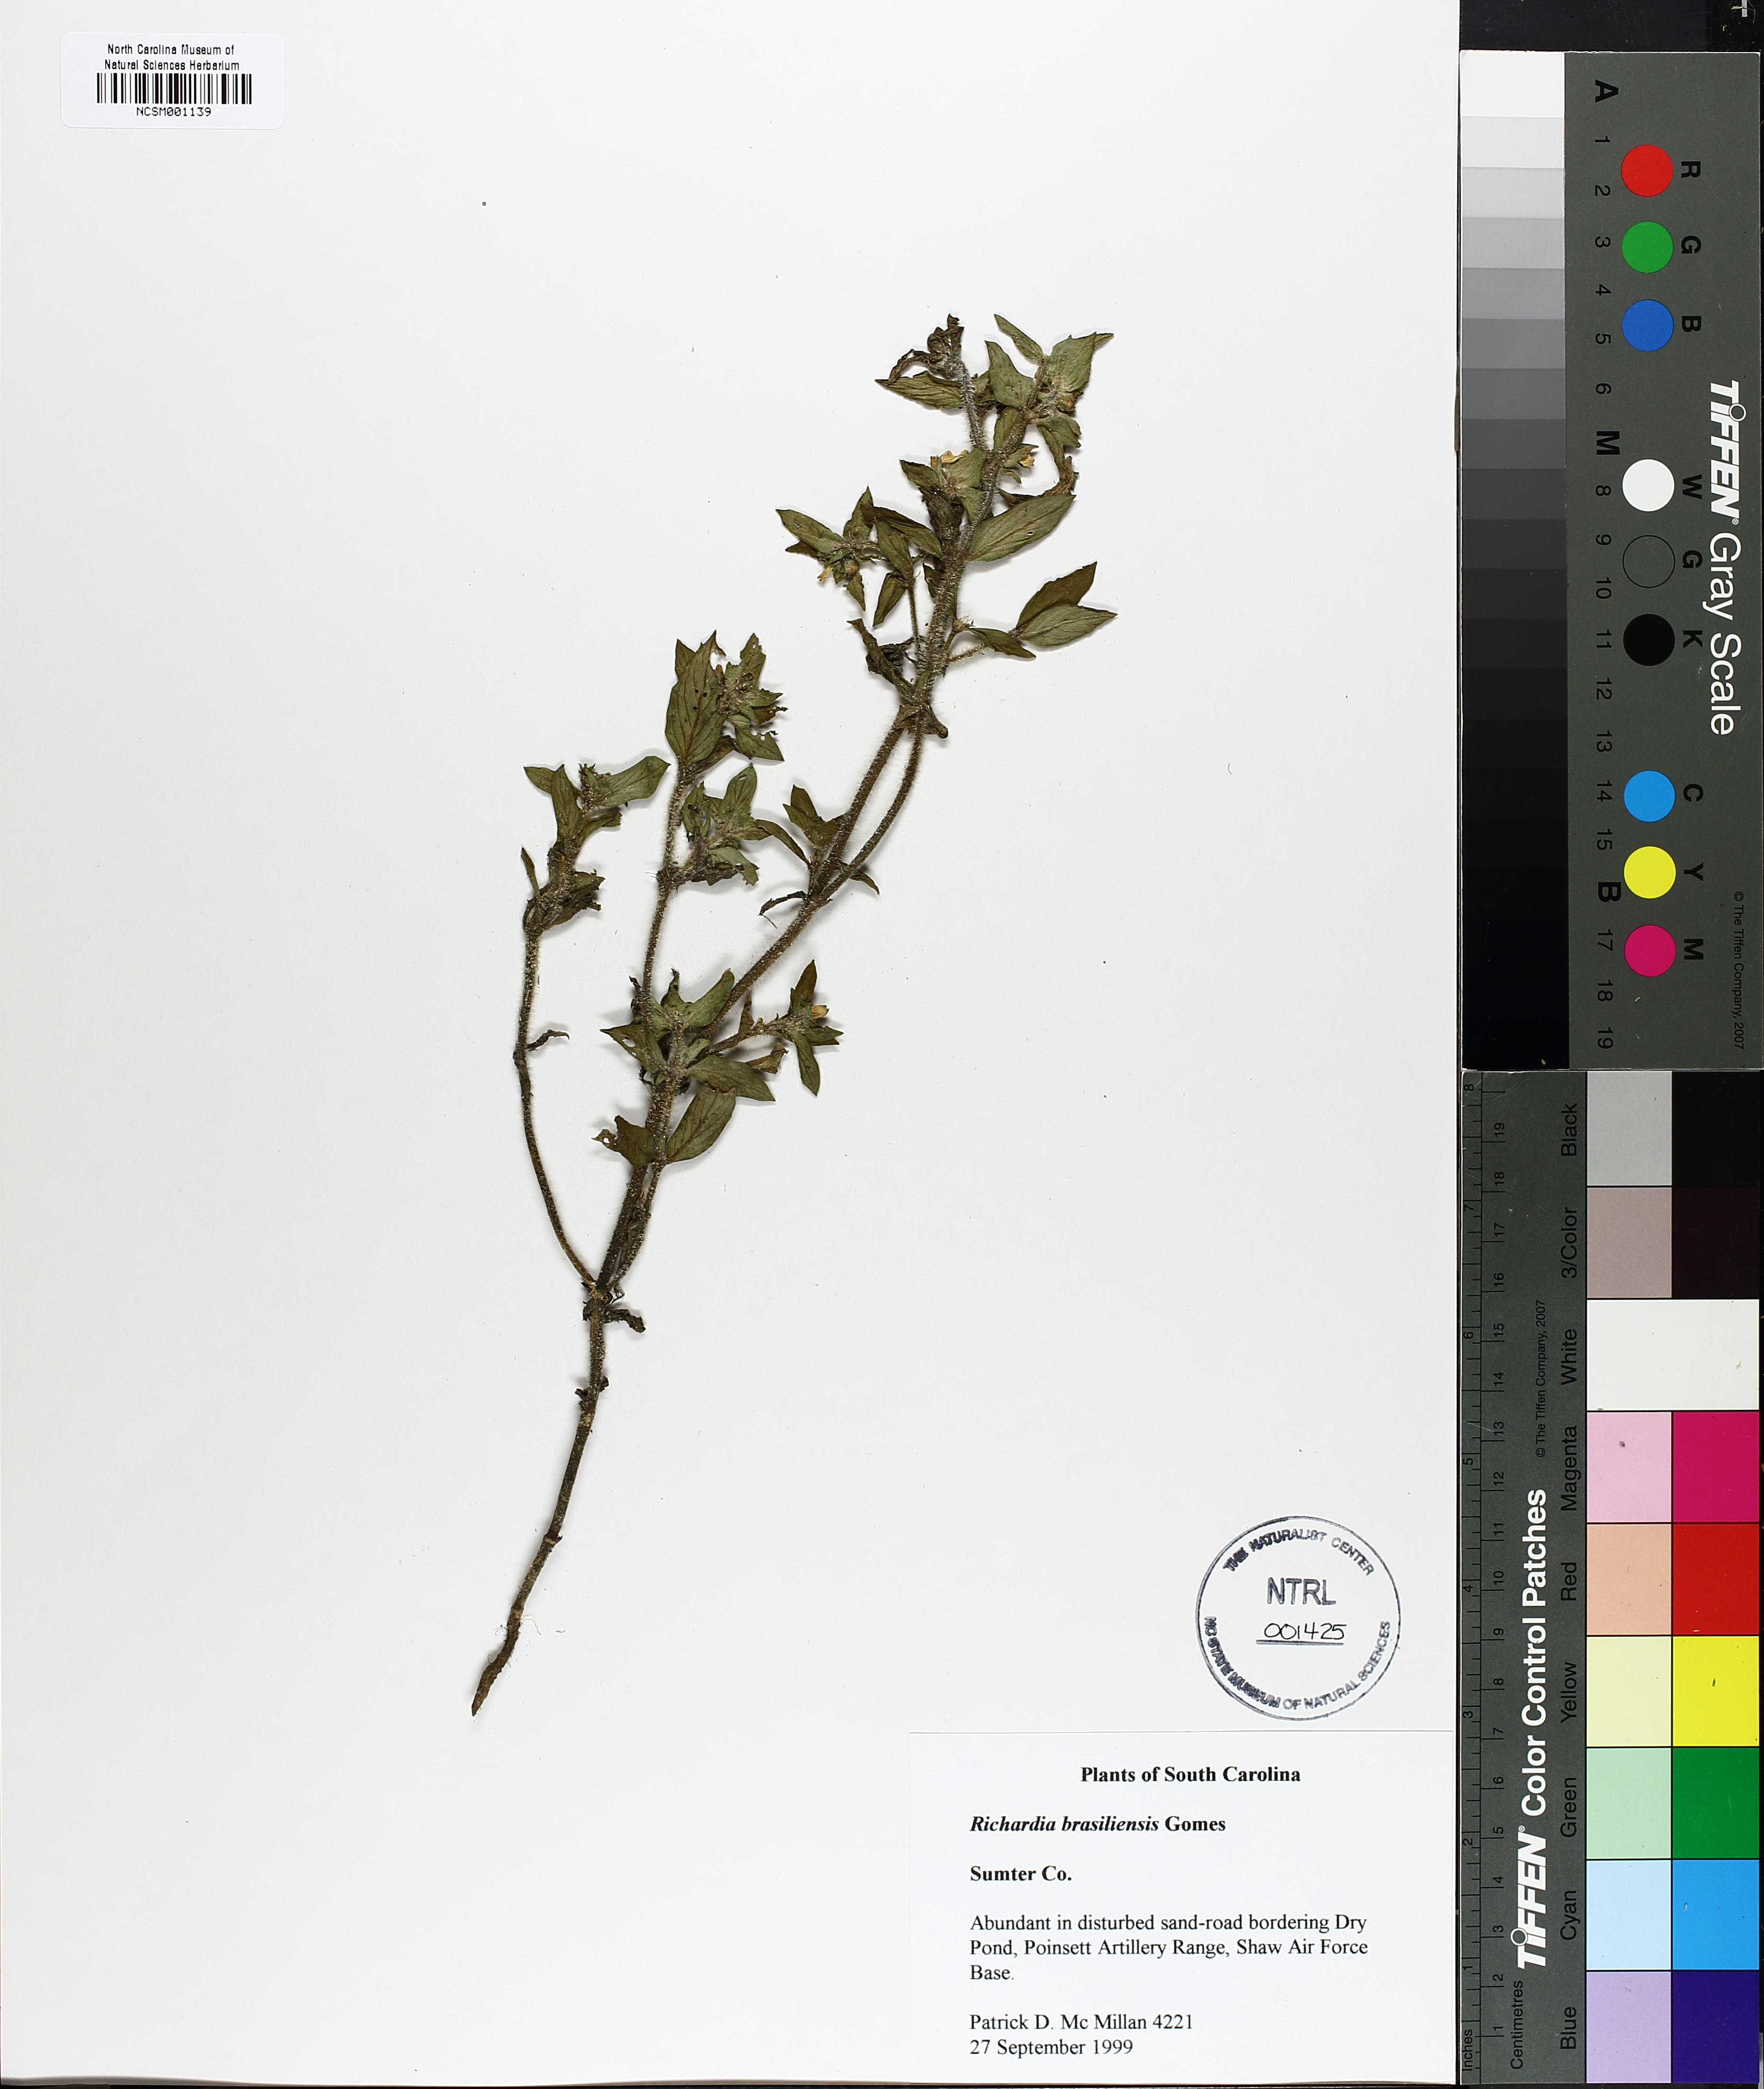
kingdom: Plantae
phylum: Tracheophyta
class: Magnoliopsida
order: Gentianales
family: Rubiaceae
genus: Richardia
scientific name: Richardia brasiliensis
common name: Tropical mexican clover
